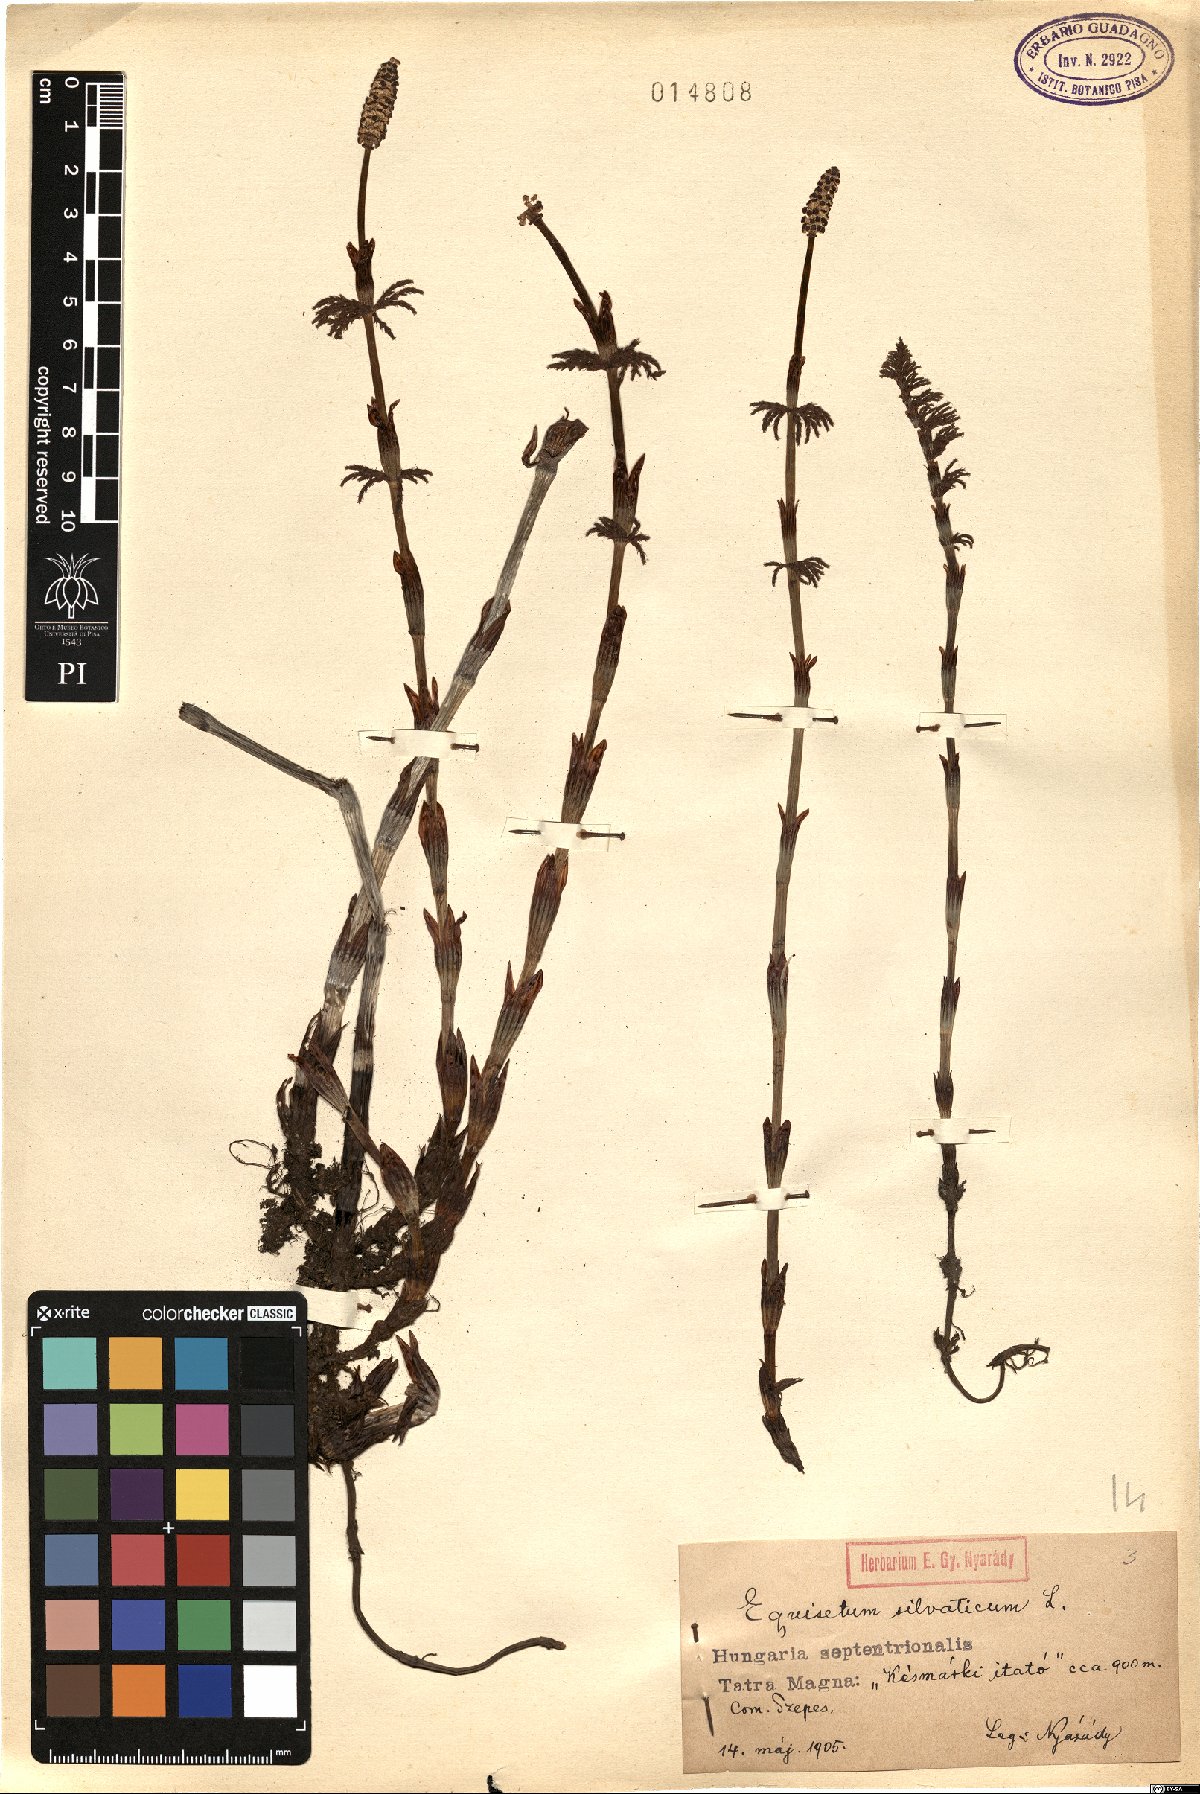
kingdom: Plantae
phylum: Tracheophyta
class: Polypodiopsida
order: Equisetales
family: Equisetaceae
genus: Equisetum
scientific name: Equisetum sylvaticum
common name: Wood horsetail
